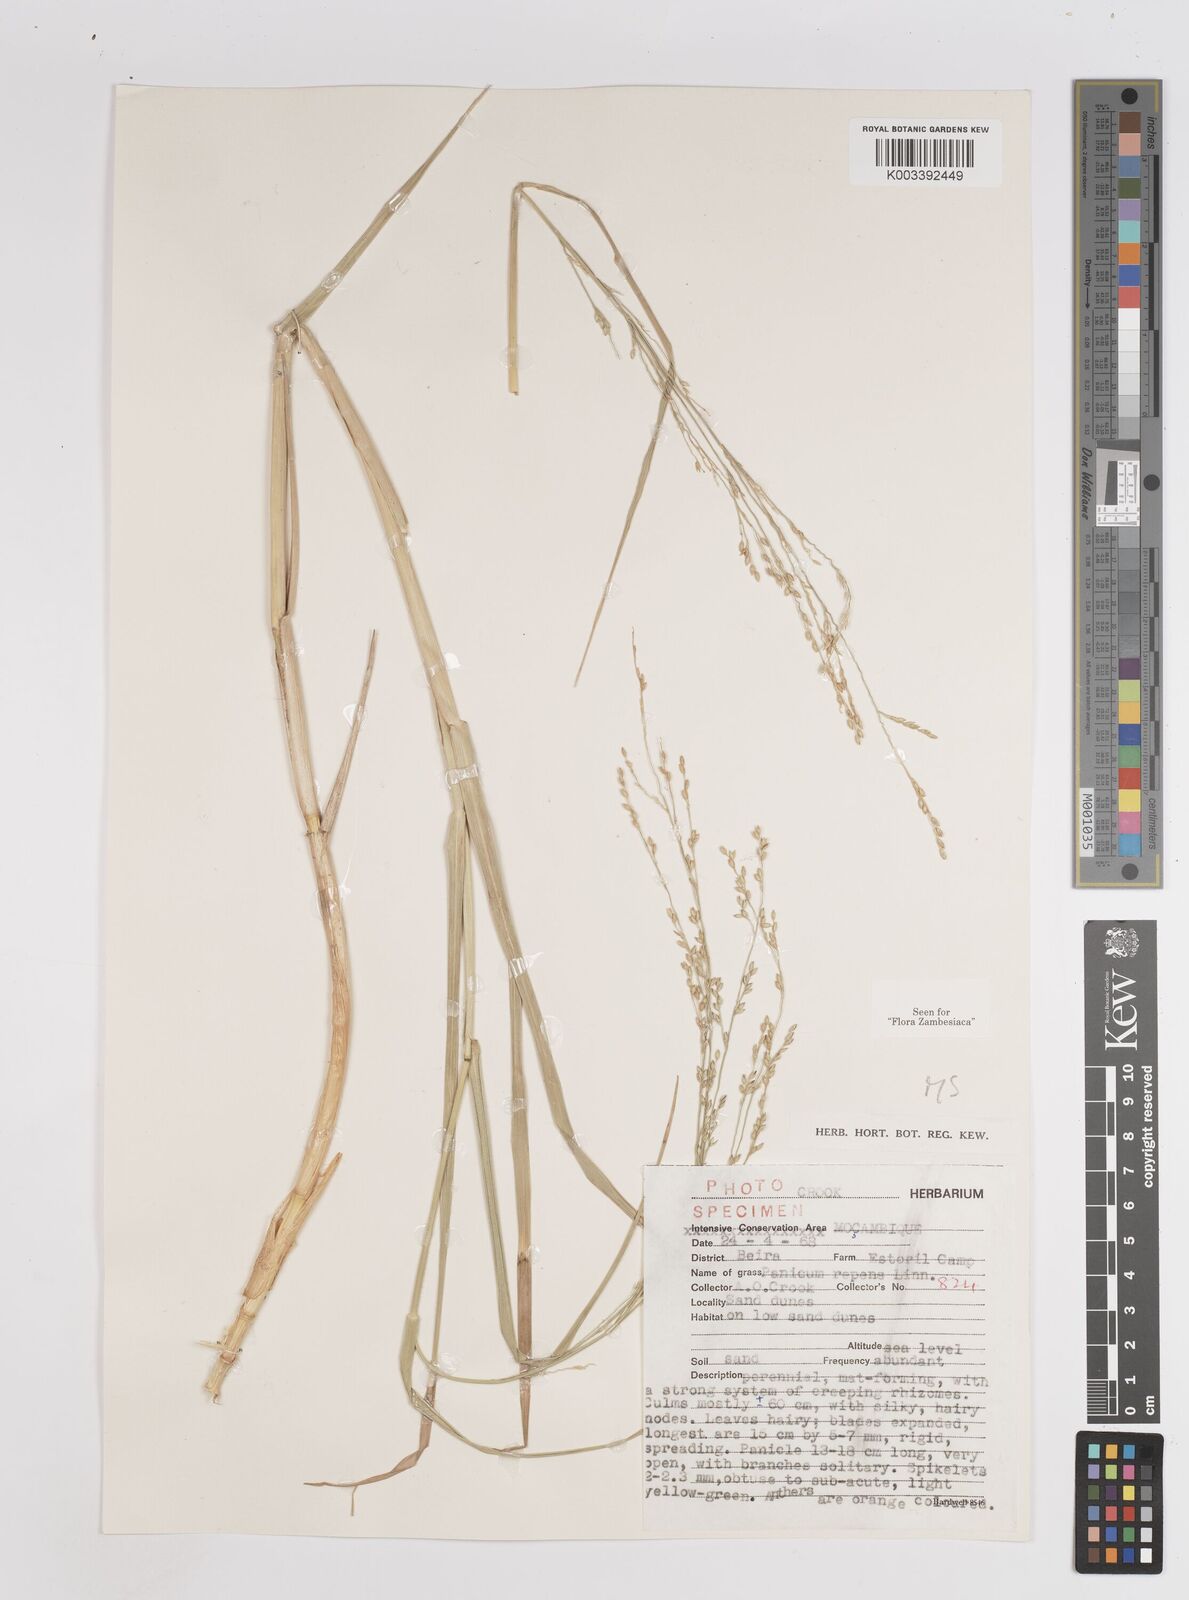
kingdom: Plantae
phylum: Tracheophyta
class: Liliopsida
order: Poales
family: Poaceae
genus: Panicum
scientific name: Panicum repens
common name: Torpedo grass
